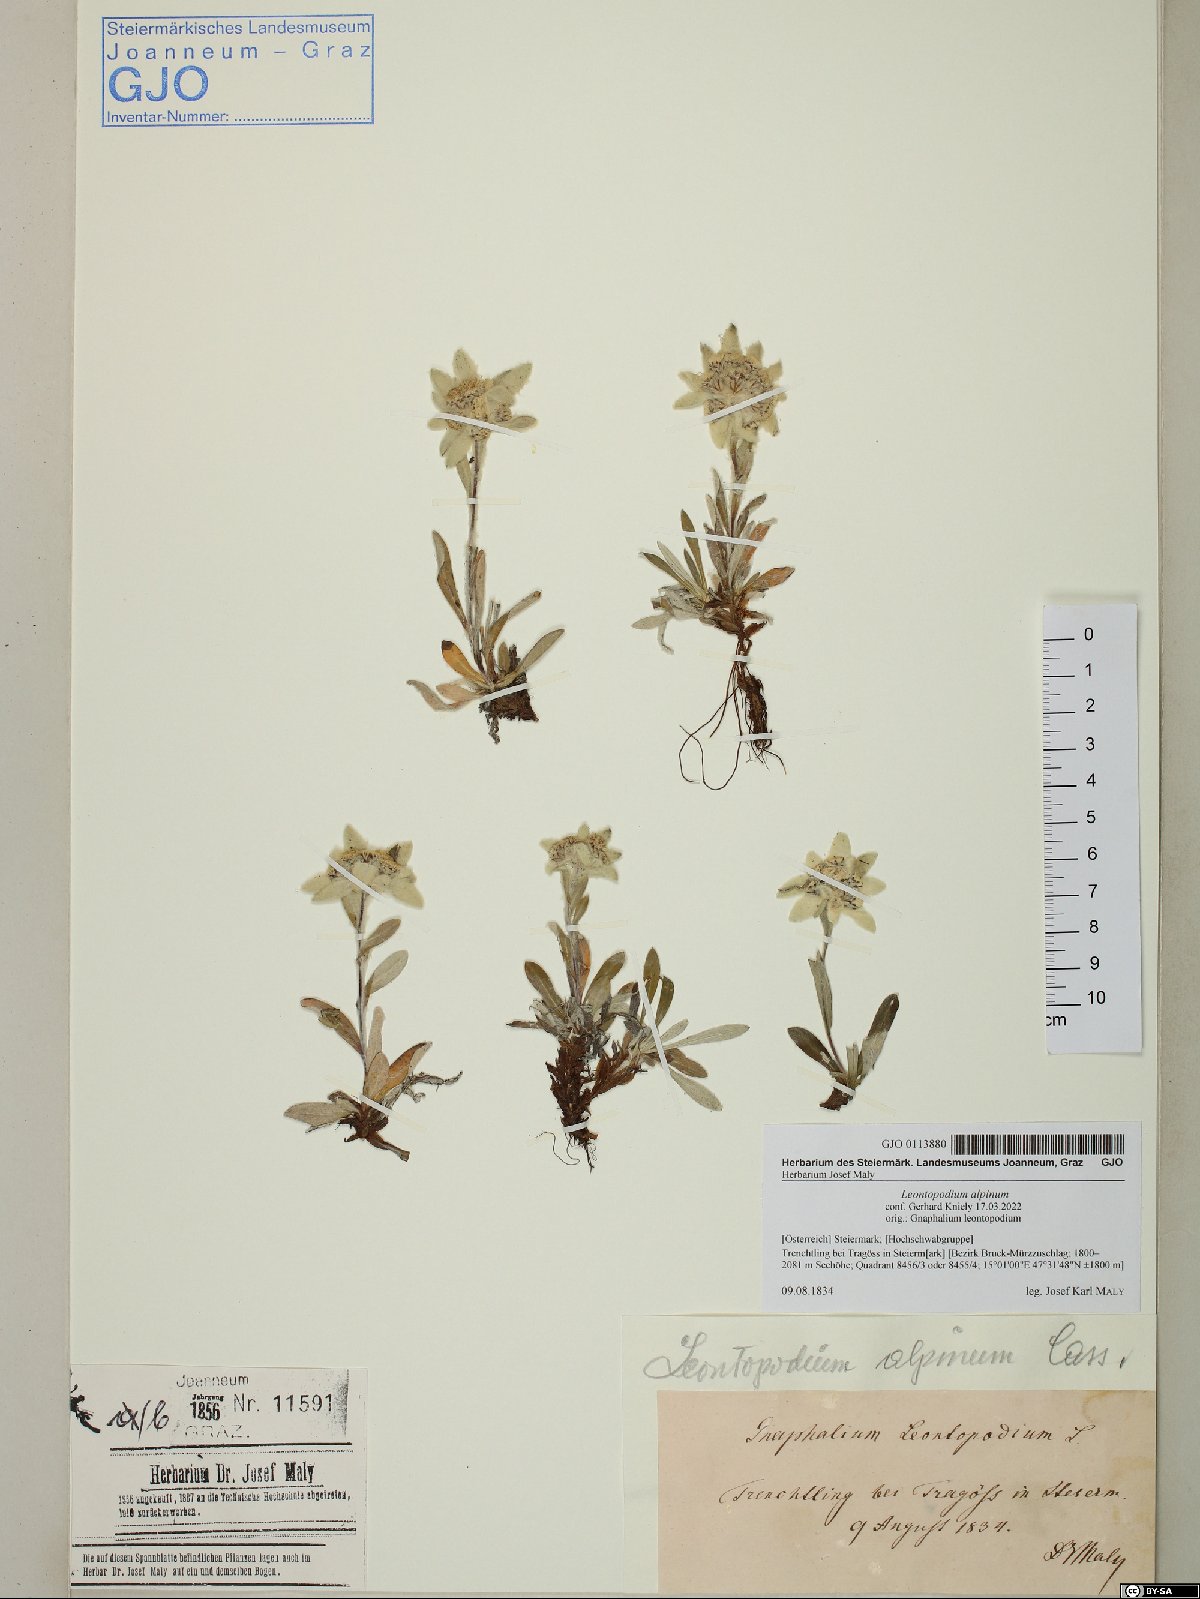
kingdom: Plantae
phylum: Tracheophyta
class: Magnoliopsida
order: Asterales
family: Asteraceae
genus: Leontopodium
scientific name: Leontopodium nivale
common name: Edelweiss
